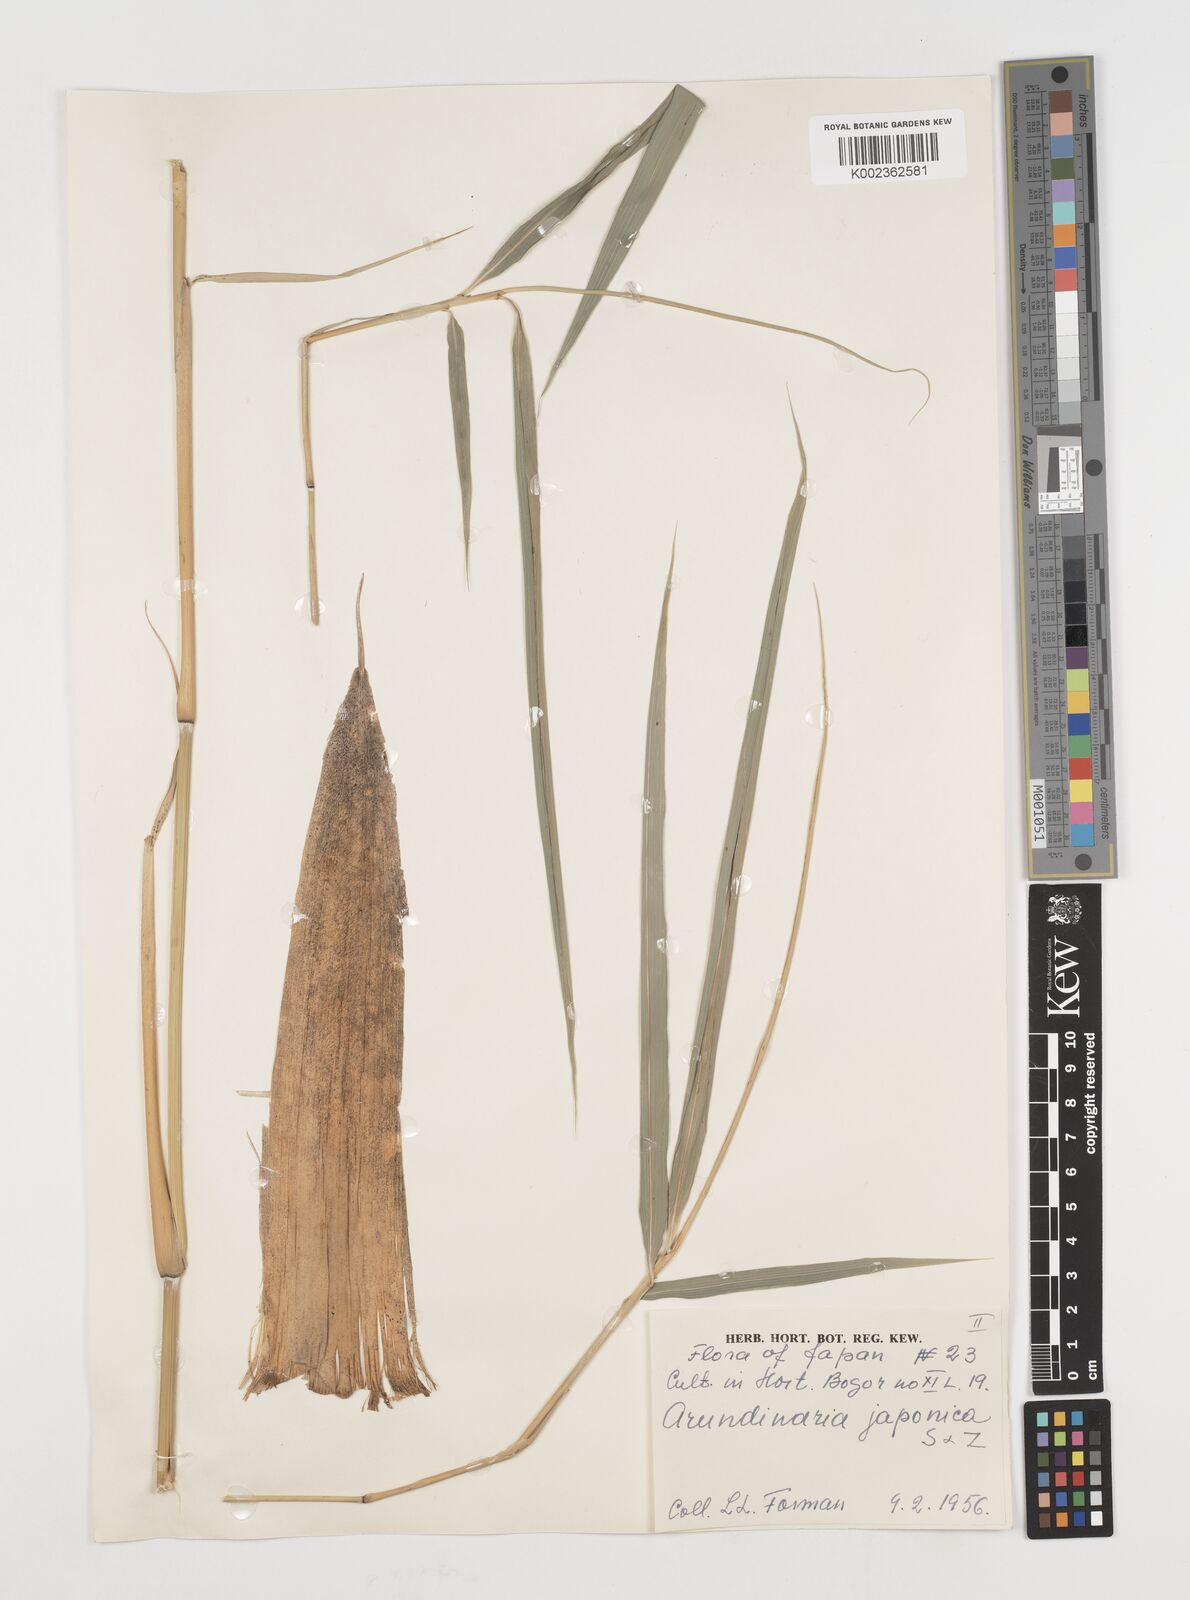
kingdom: Plantae
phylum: Tracheophyta
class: Liliopsida
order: Poales
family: Poaceae
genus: Pseudosasa
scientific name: Pseudosasa japonica
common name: Arrow bamboo
